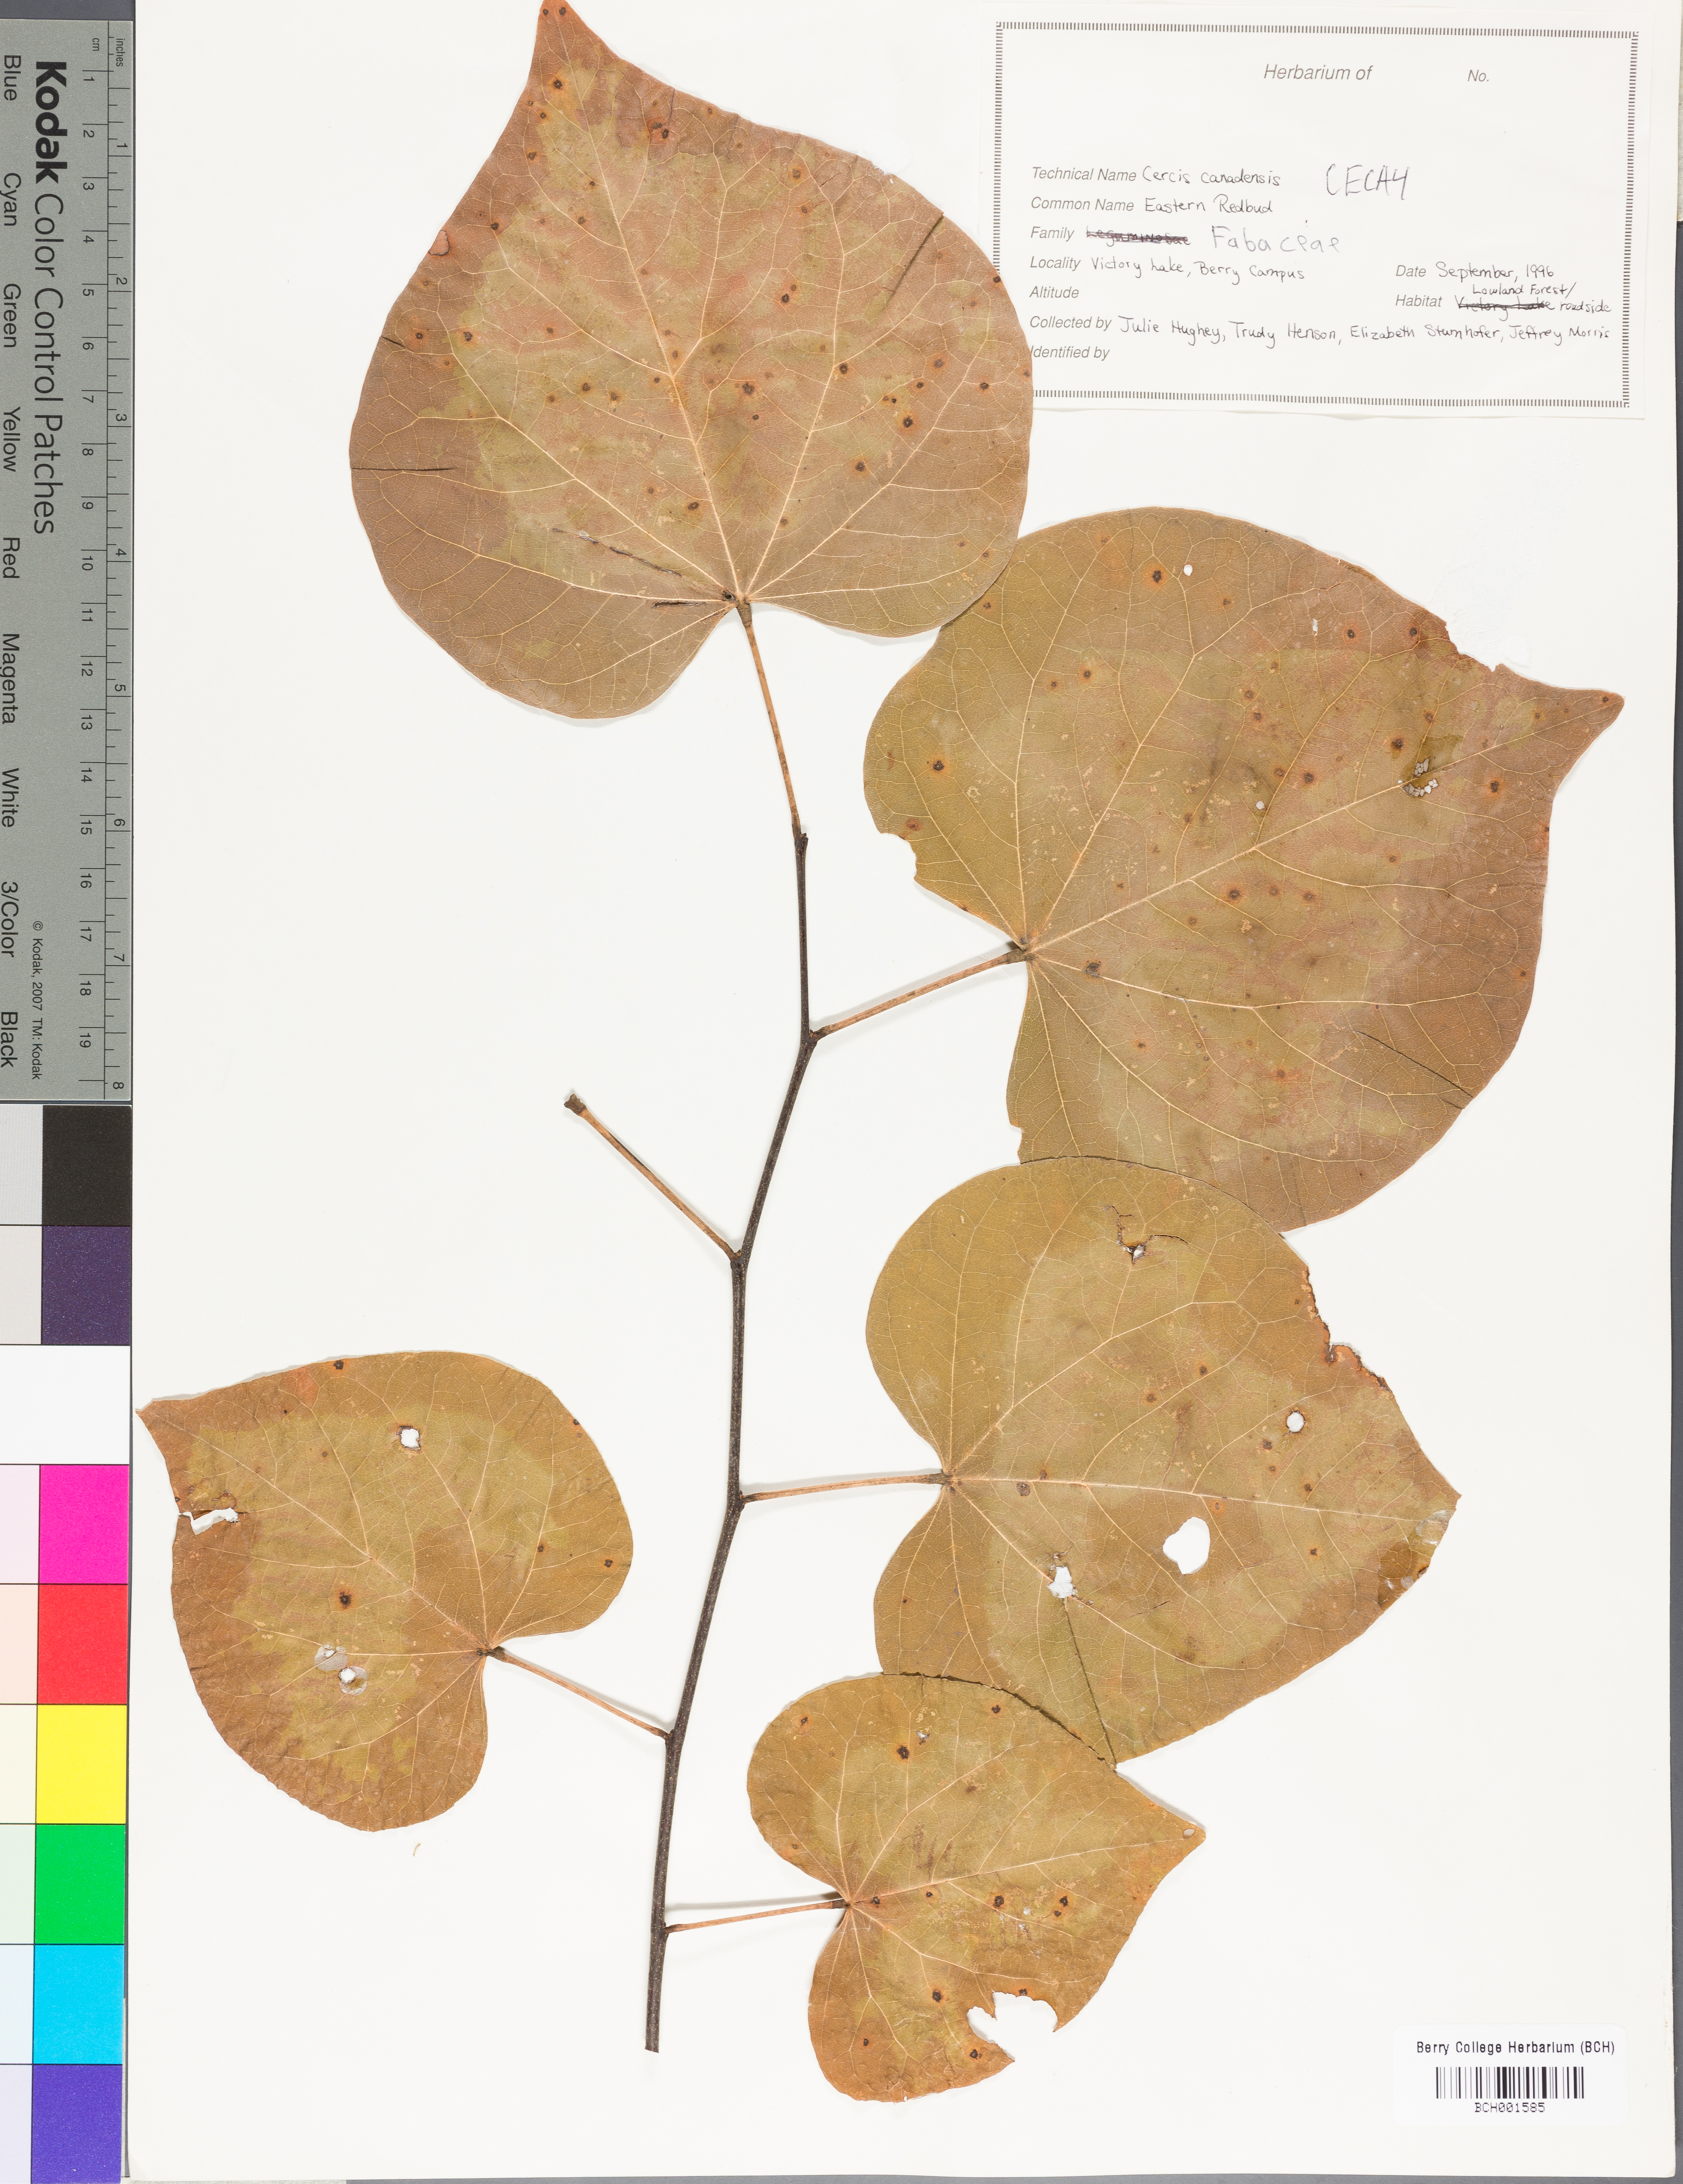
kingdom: Plantae
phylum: Tracheophyta
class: Magnoliopsida
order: Fabales
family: Fabaceae
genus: Cercis
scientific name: Cercis canadensis
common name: Eastern redbud
